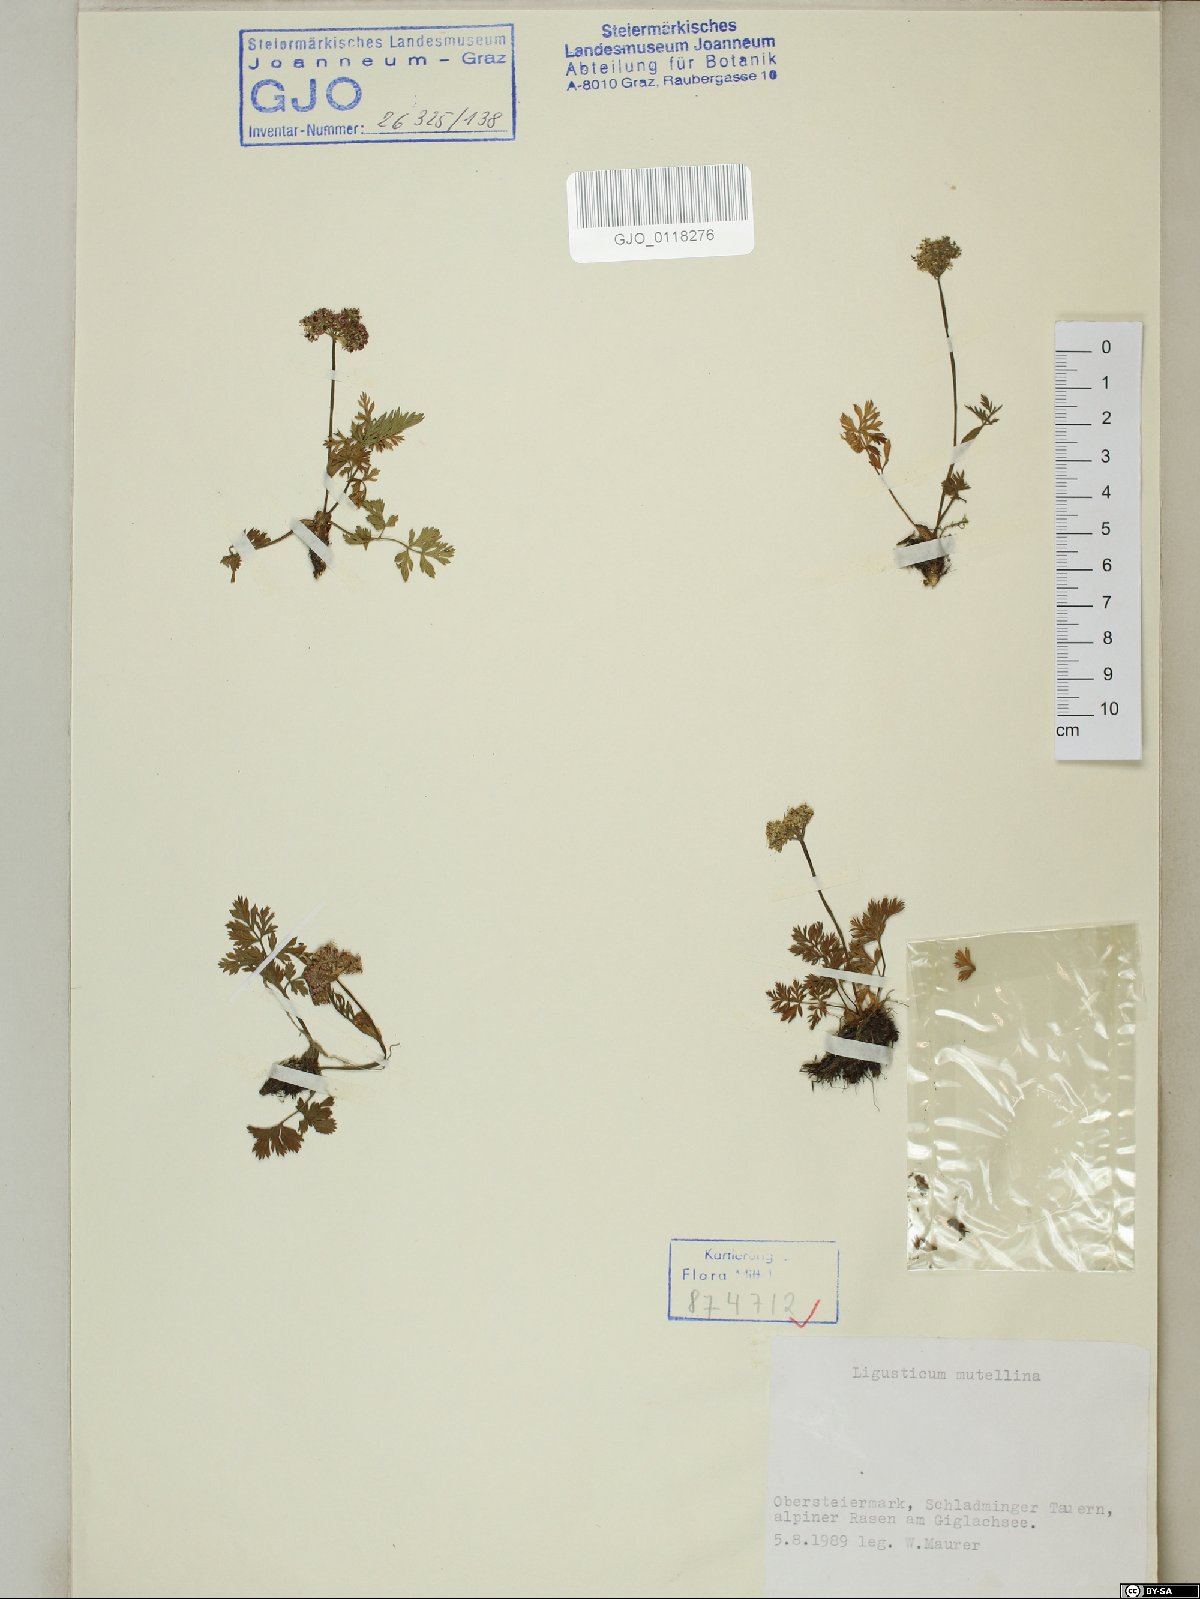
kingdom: Plantae
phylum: Tracheophyta
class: Magnoliopsida
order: Apiales
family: Apiaceae
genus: Mutellina
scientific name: Mutellina adonidifolia
